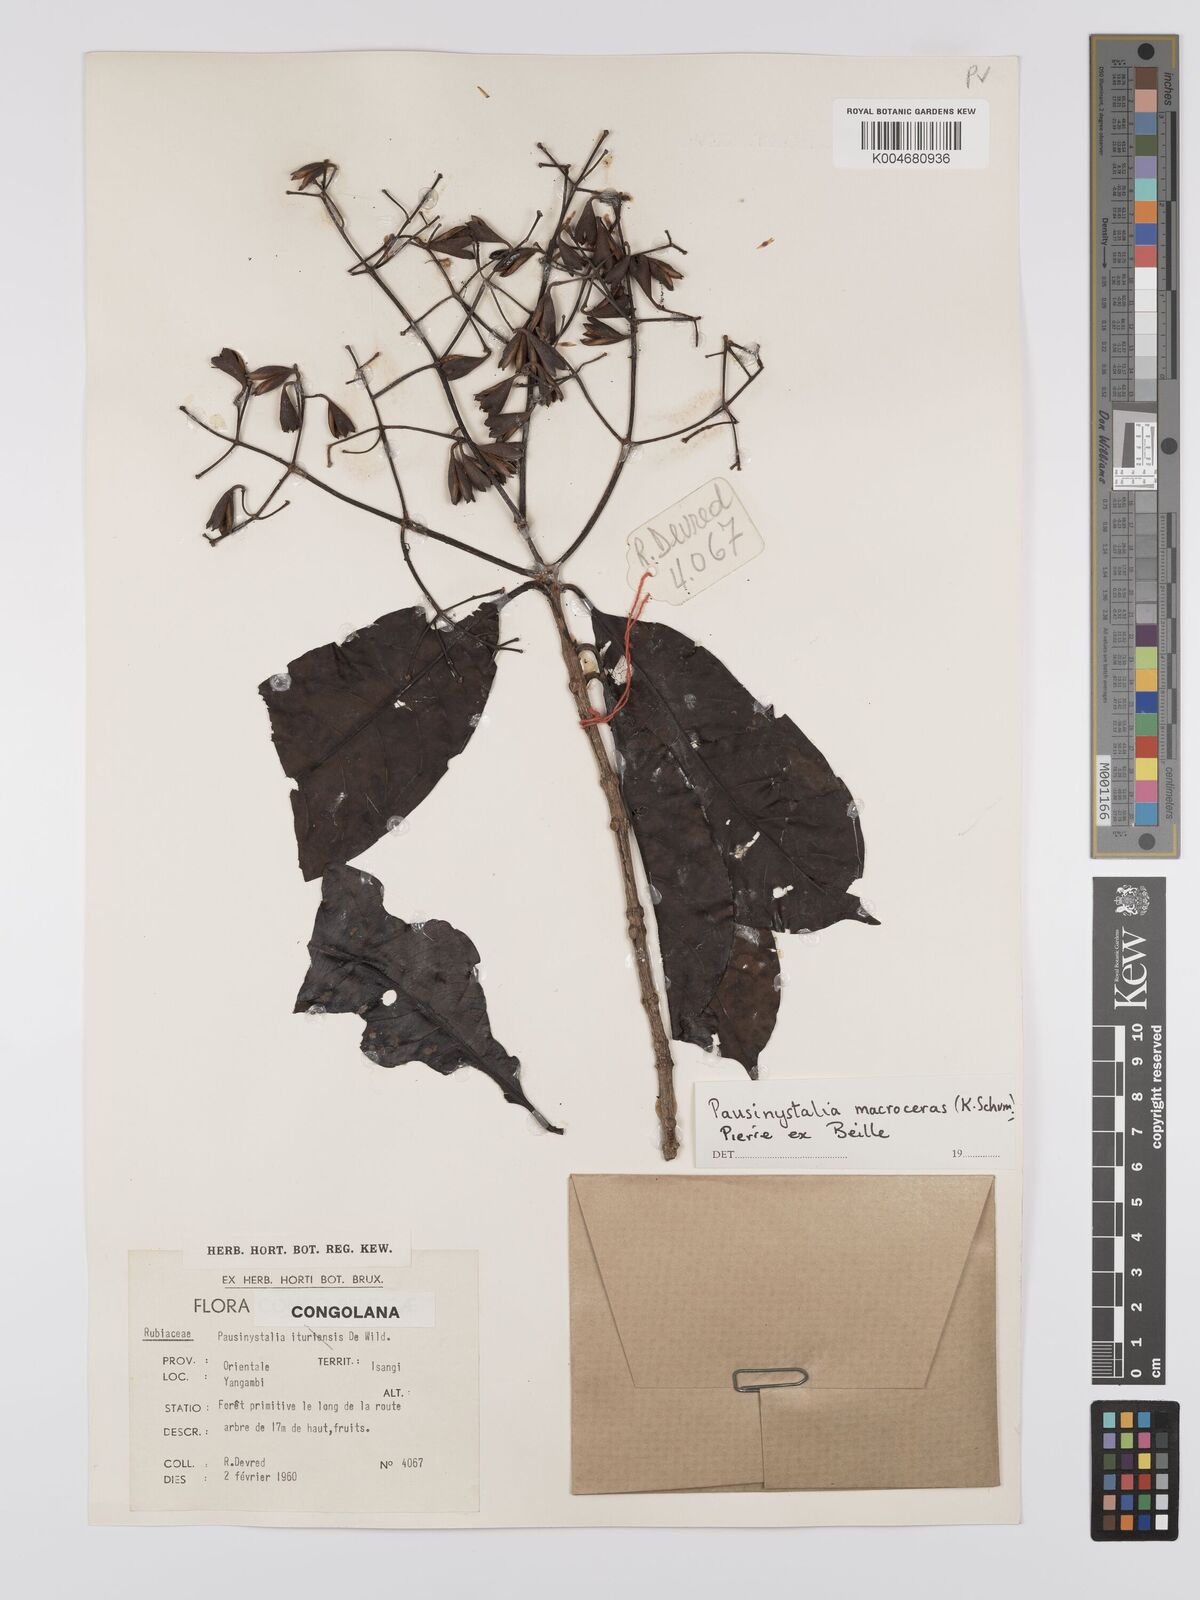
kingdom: Plantae
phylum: Tracheophyta
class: Magnoliopsida
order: Gentianales
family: Rubiaceae
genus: Corynanthe
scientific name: Corynanthe macroceras
